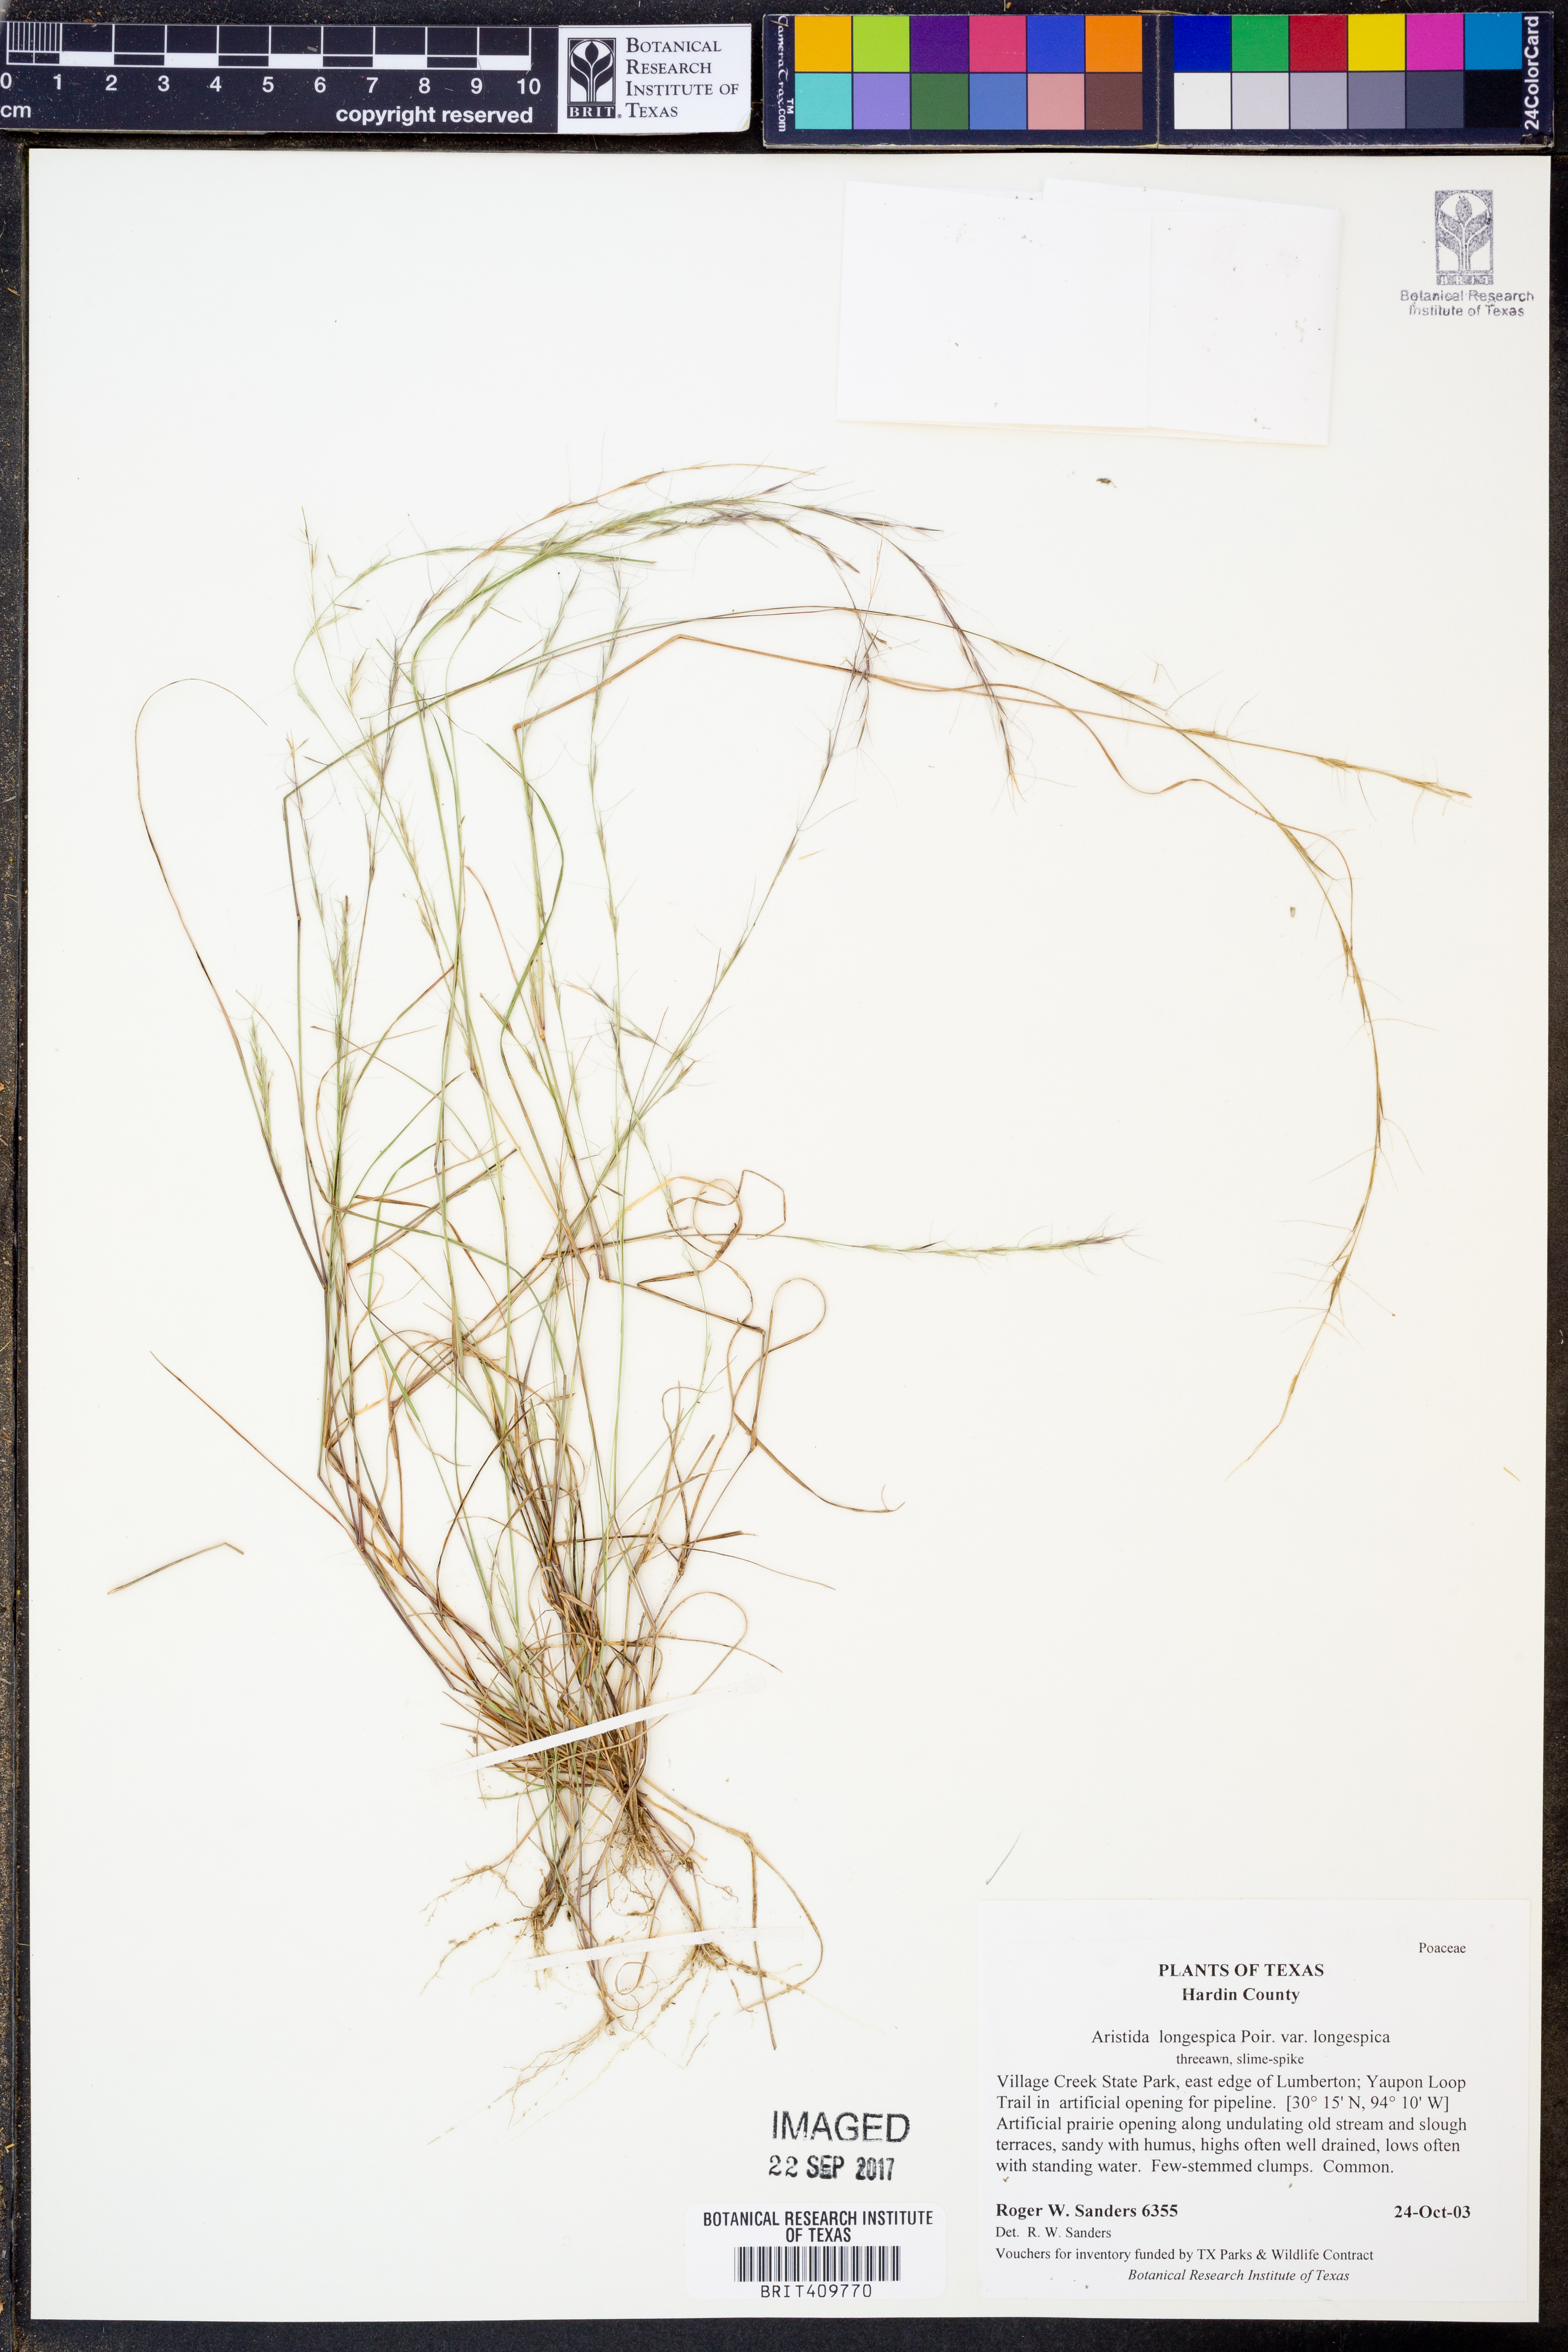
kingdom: Plantae
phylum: Tracheophyta
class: Liliopsida
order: Poales
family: Poaceae
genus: Aristida
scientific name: Aristida longespica
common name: Long-spiked triple-awned grass
